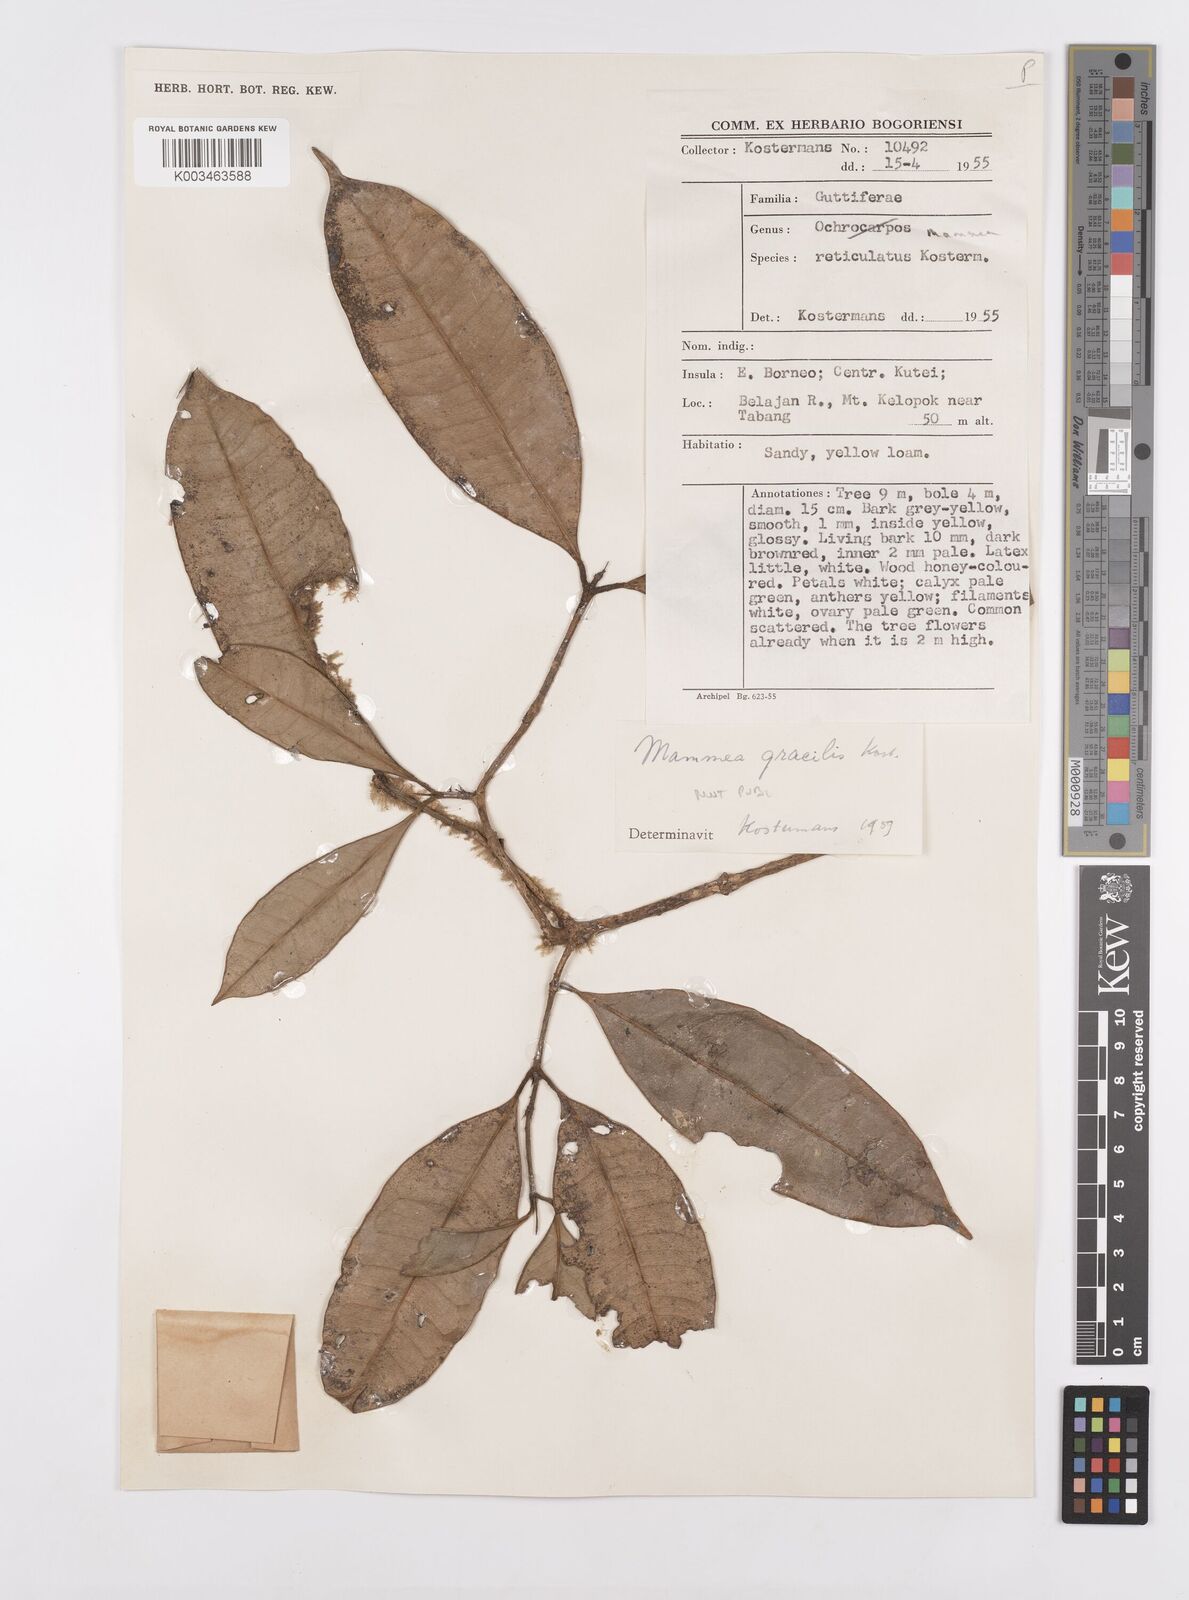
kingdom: Plantae
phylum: Tracheophyta
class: Magnoliopsida
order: Malpighiales
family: Calophyllaceae
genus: Mammea
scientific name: Mammea reticulata
